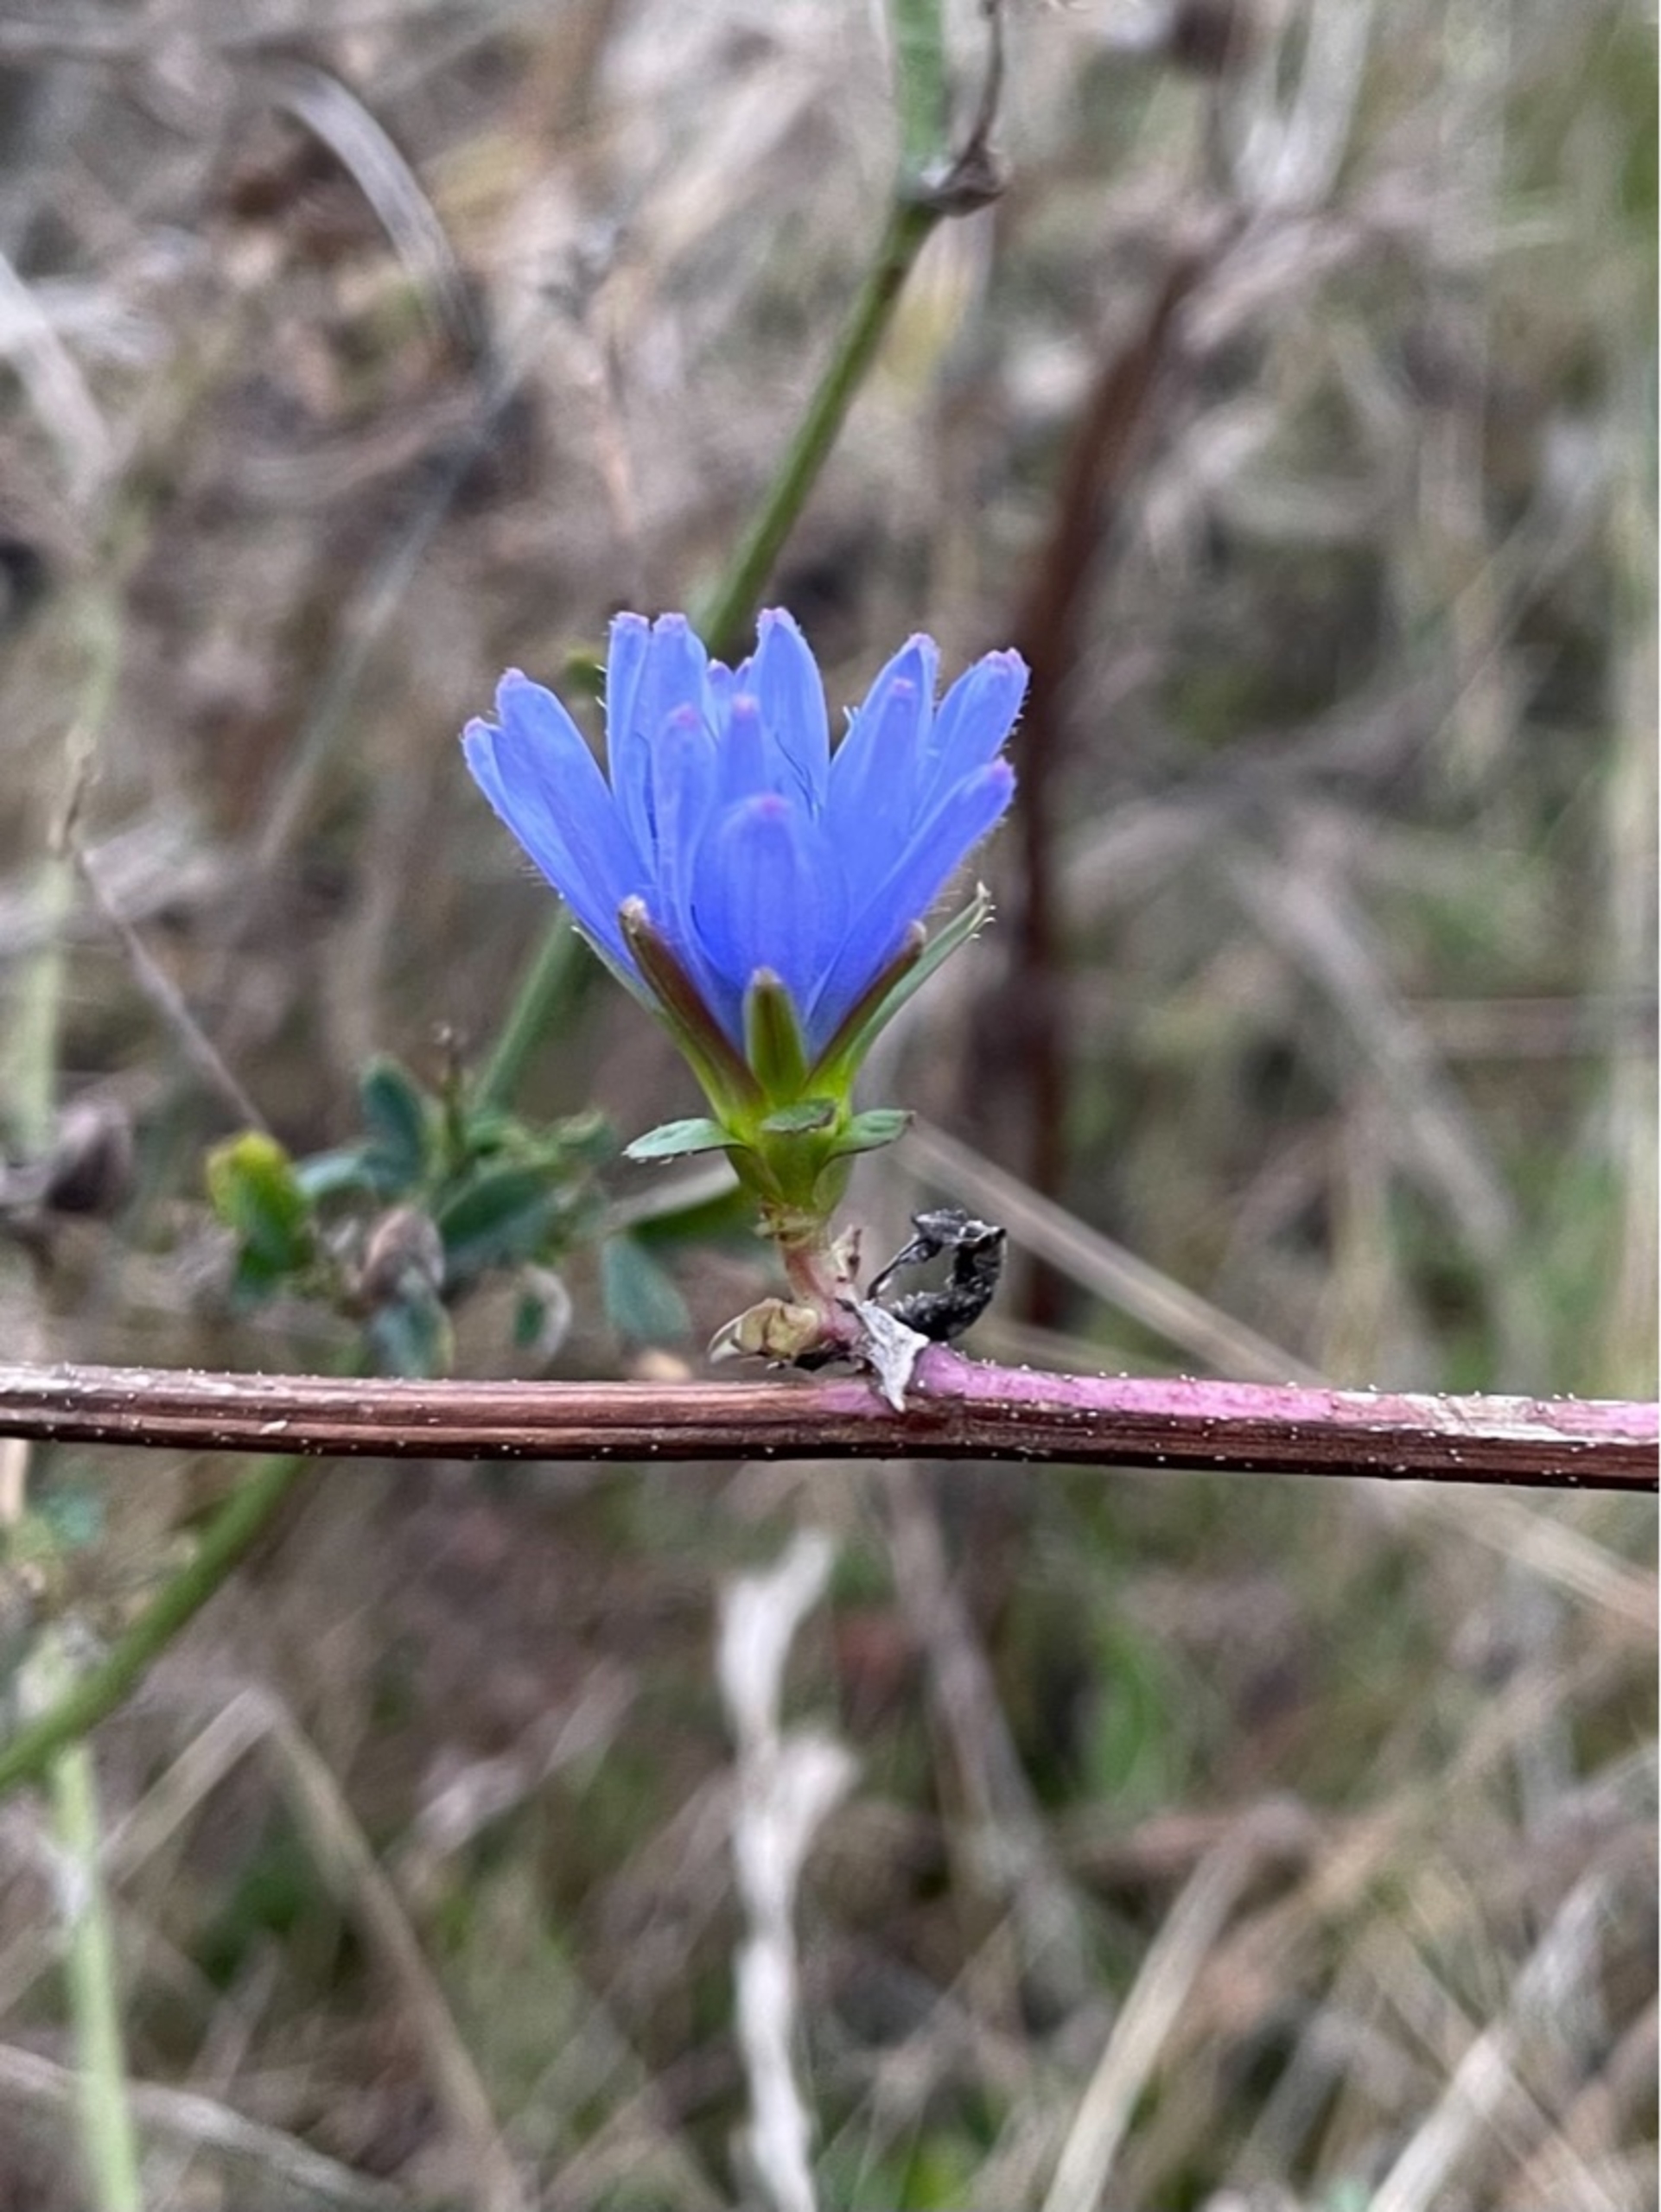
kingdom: Plantae
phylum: Tracheophyta
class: Magnoliopsida
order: Asterales
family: Asteraceae
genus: Cichorium
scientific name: Cichorium intybus
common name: Cikorie
